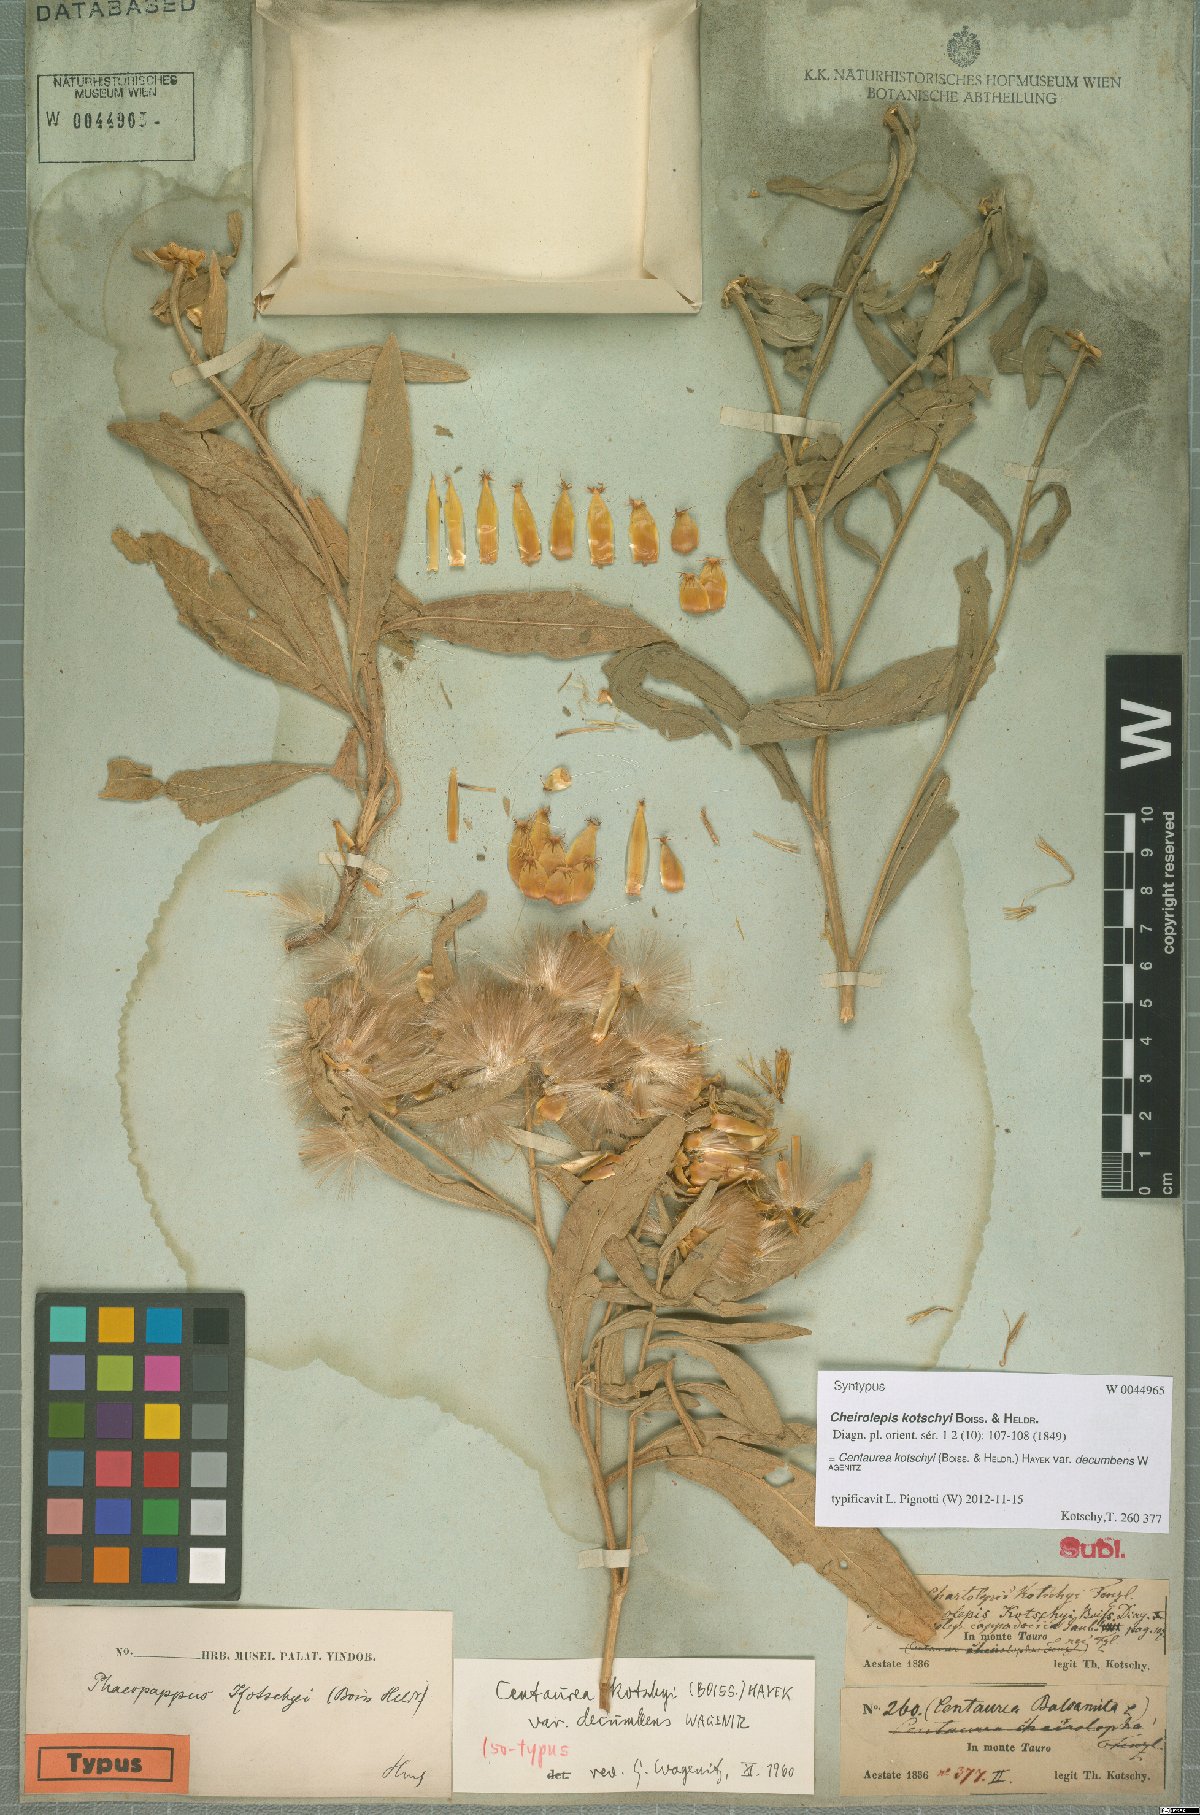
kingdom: Plantae
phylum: Tracheophyta
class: Magnoliopsida
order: Asterales
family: Asteraceae
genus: Centaurea
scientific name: Centaurea kotschyi
